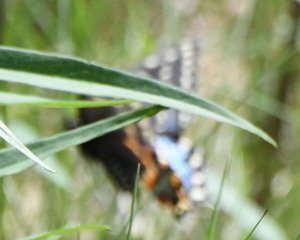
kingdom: Animalia
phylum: Arthropoda
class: Insecta
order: Lepidoptera
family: Papilionidae
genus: Papilio
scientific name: Papilio polyxenes
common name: Black Swallowtail
